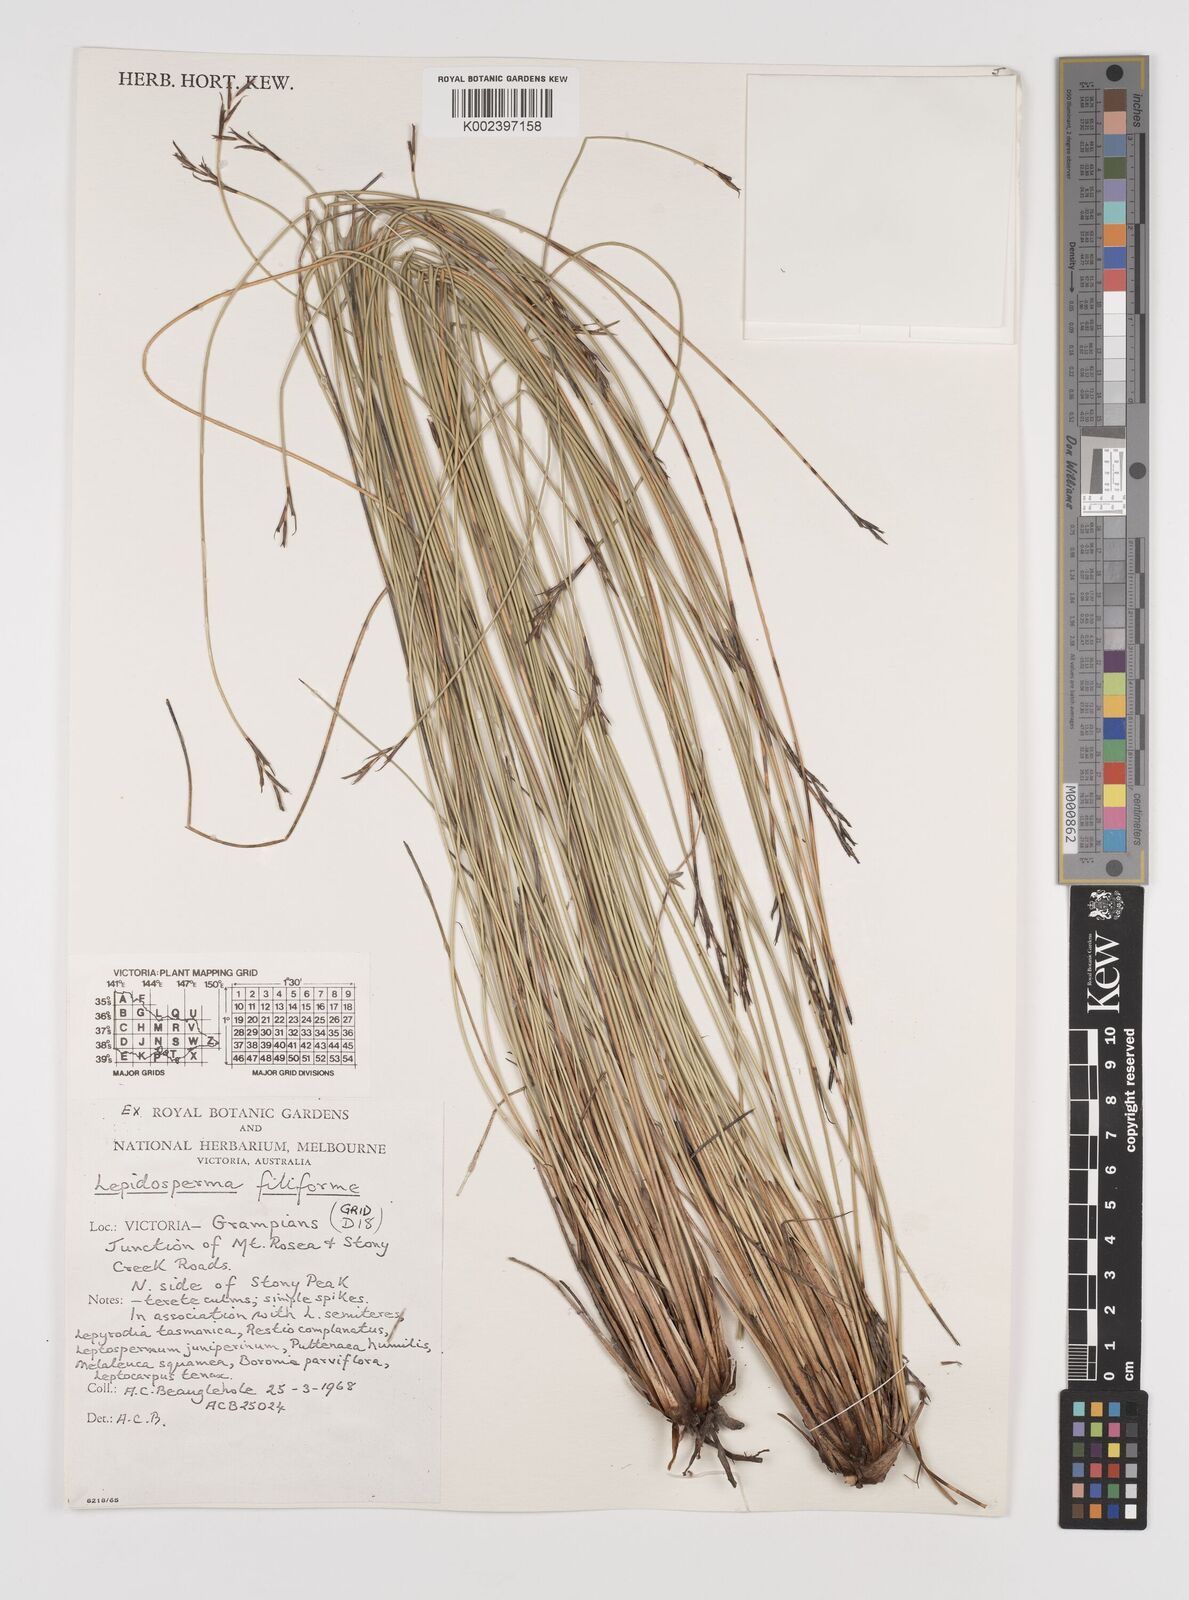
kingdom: Plantae
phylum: Tracheophyta
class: Liliopsida
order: Poales
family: Cyperaceae
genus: Lepidosperma
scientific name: Lepidosperma filiforme
